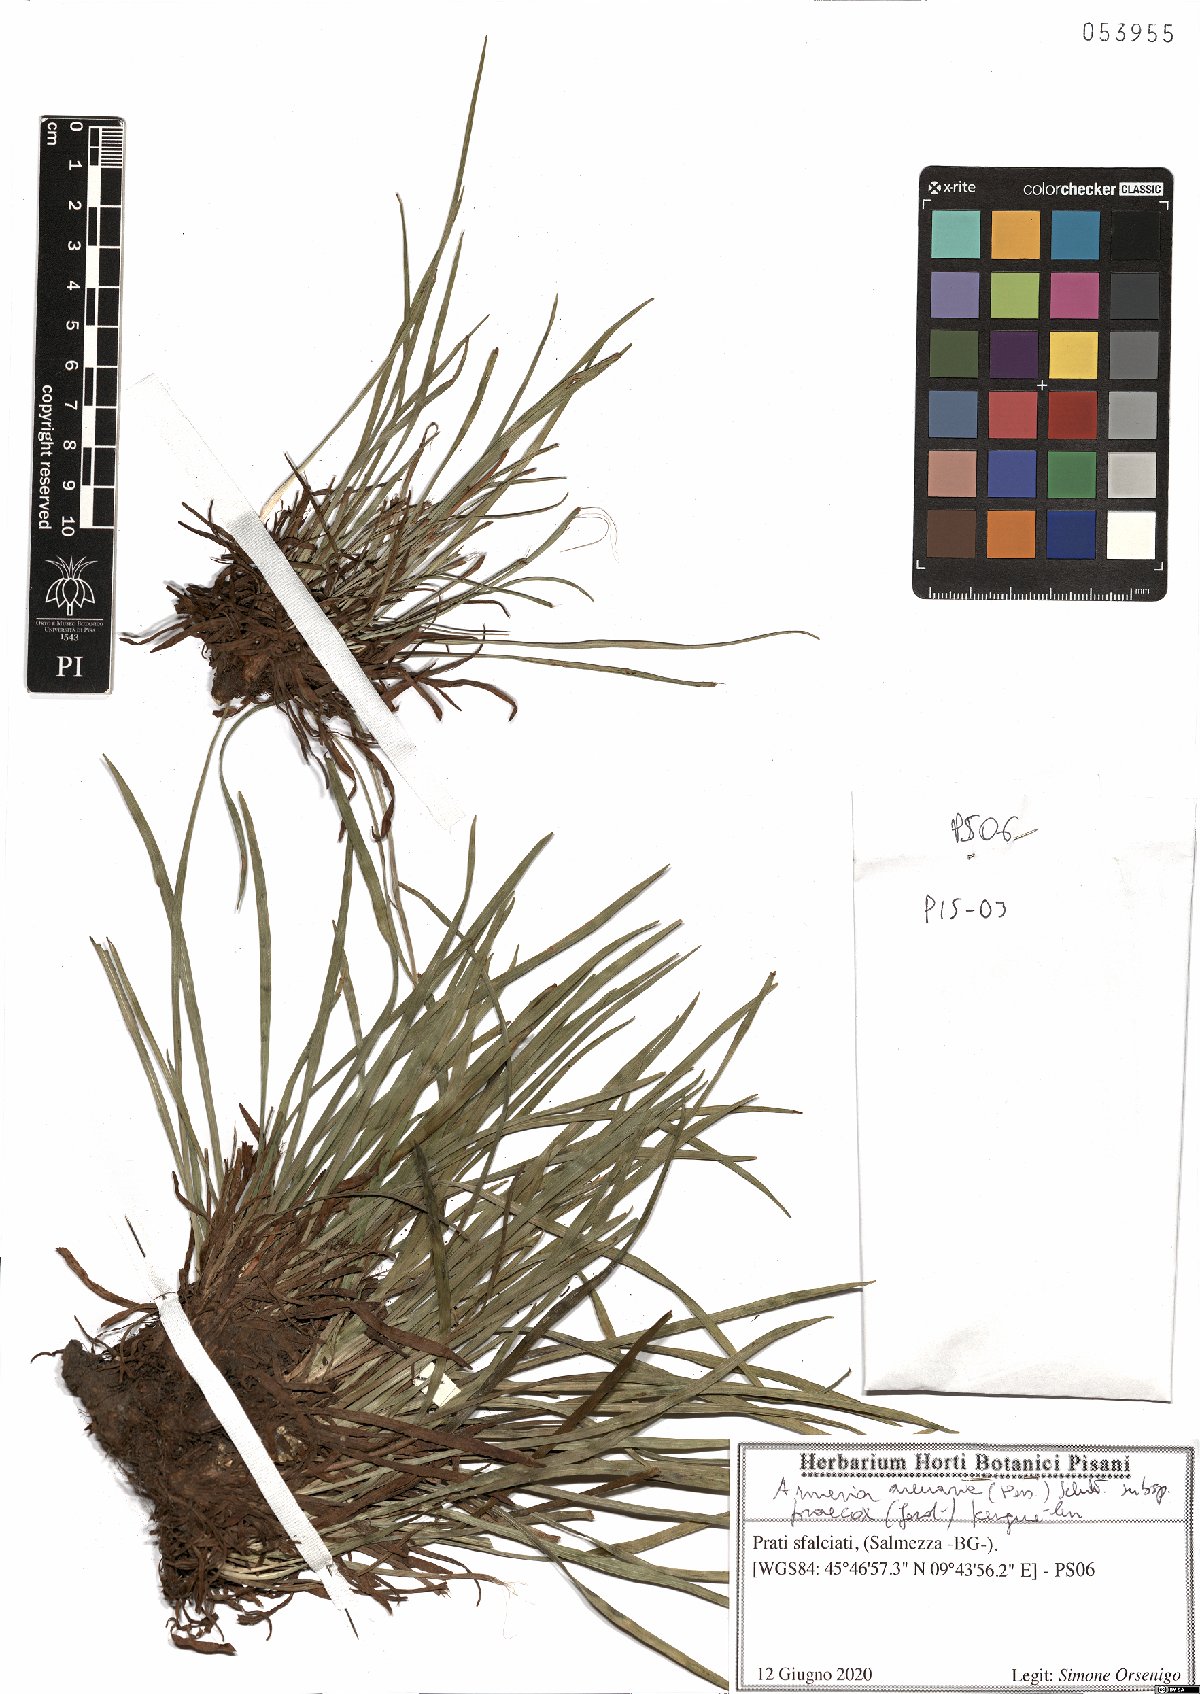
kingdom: Plantae
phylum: Tracheophyta
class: Magnoliopsida
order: Caryophyllales
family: Plumbaginaceae
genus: Armeria
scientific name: Armeria arenaria
